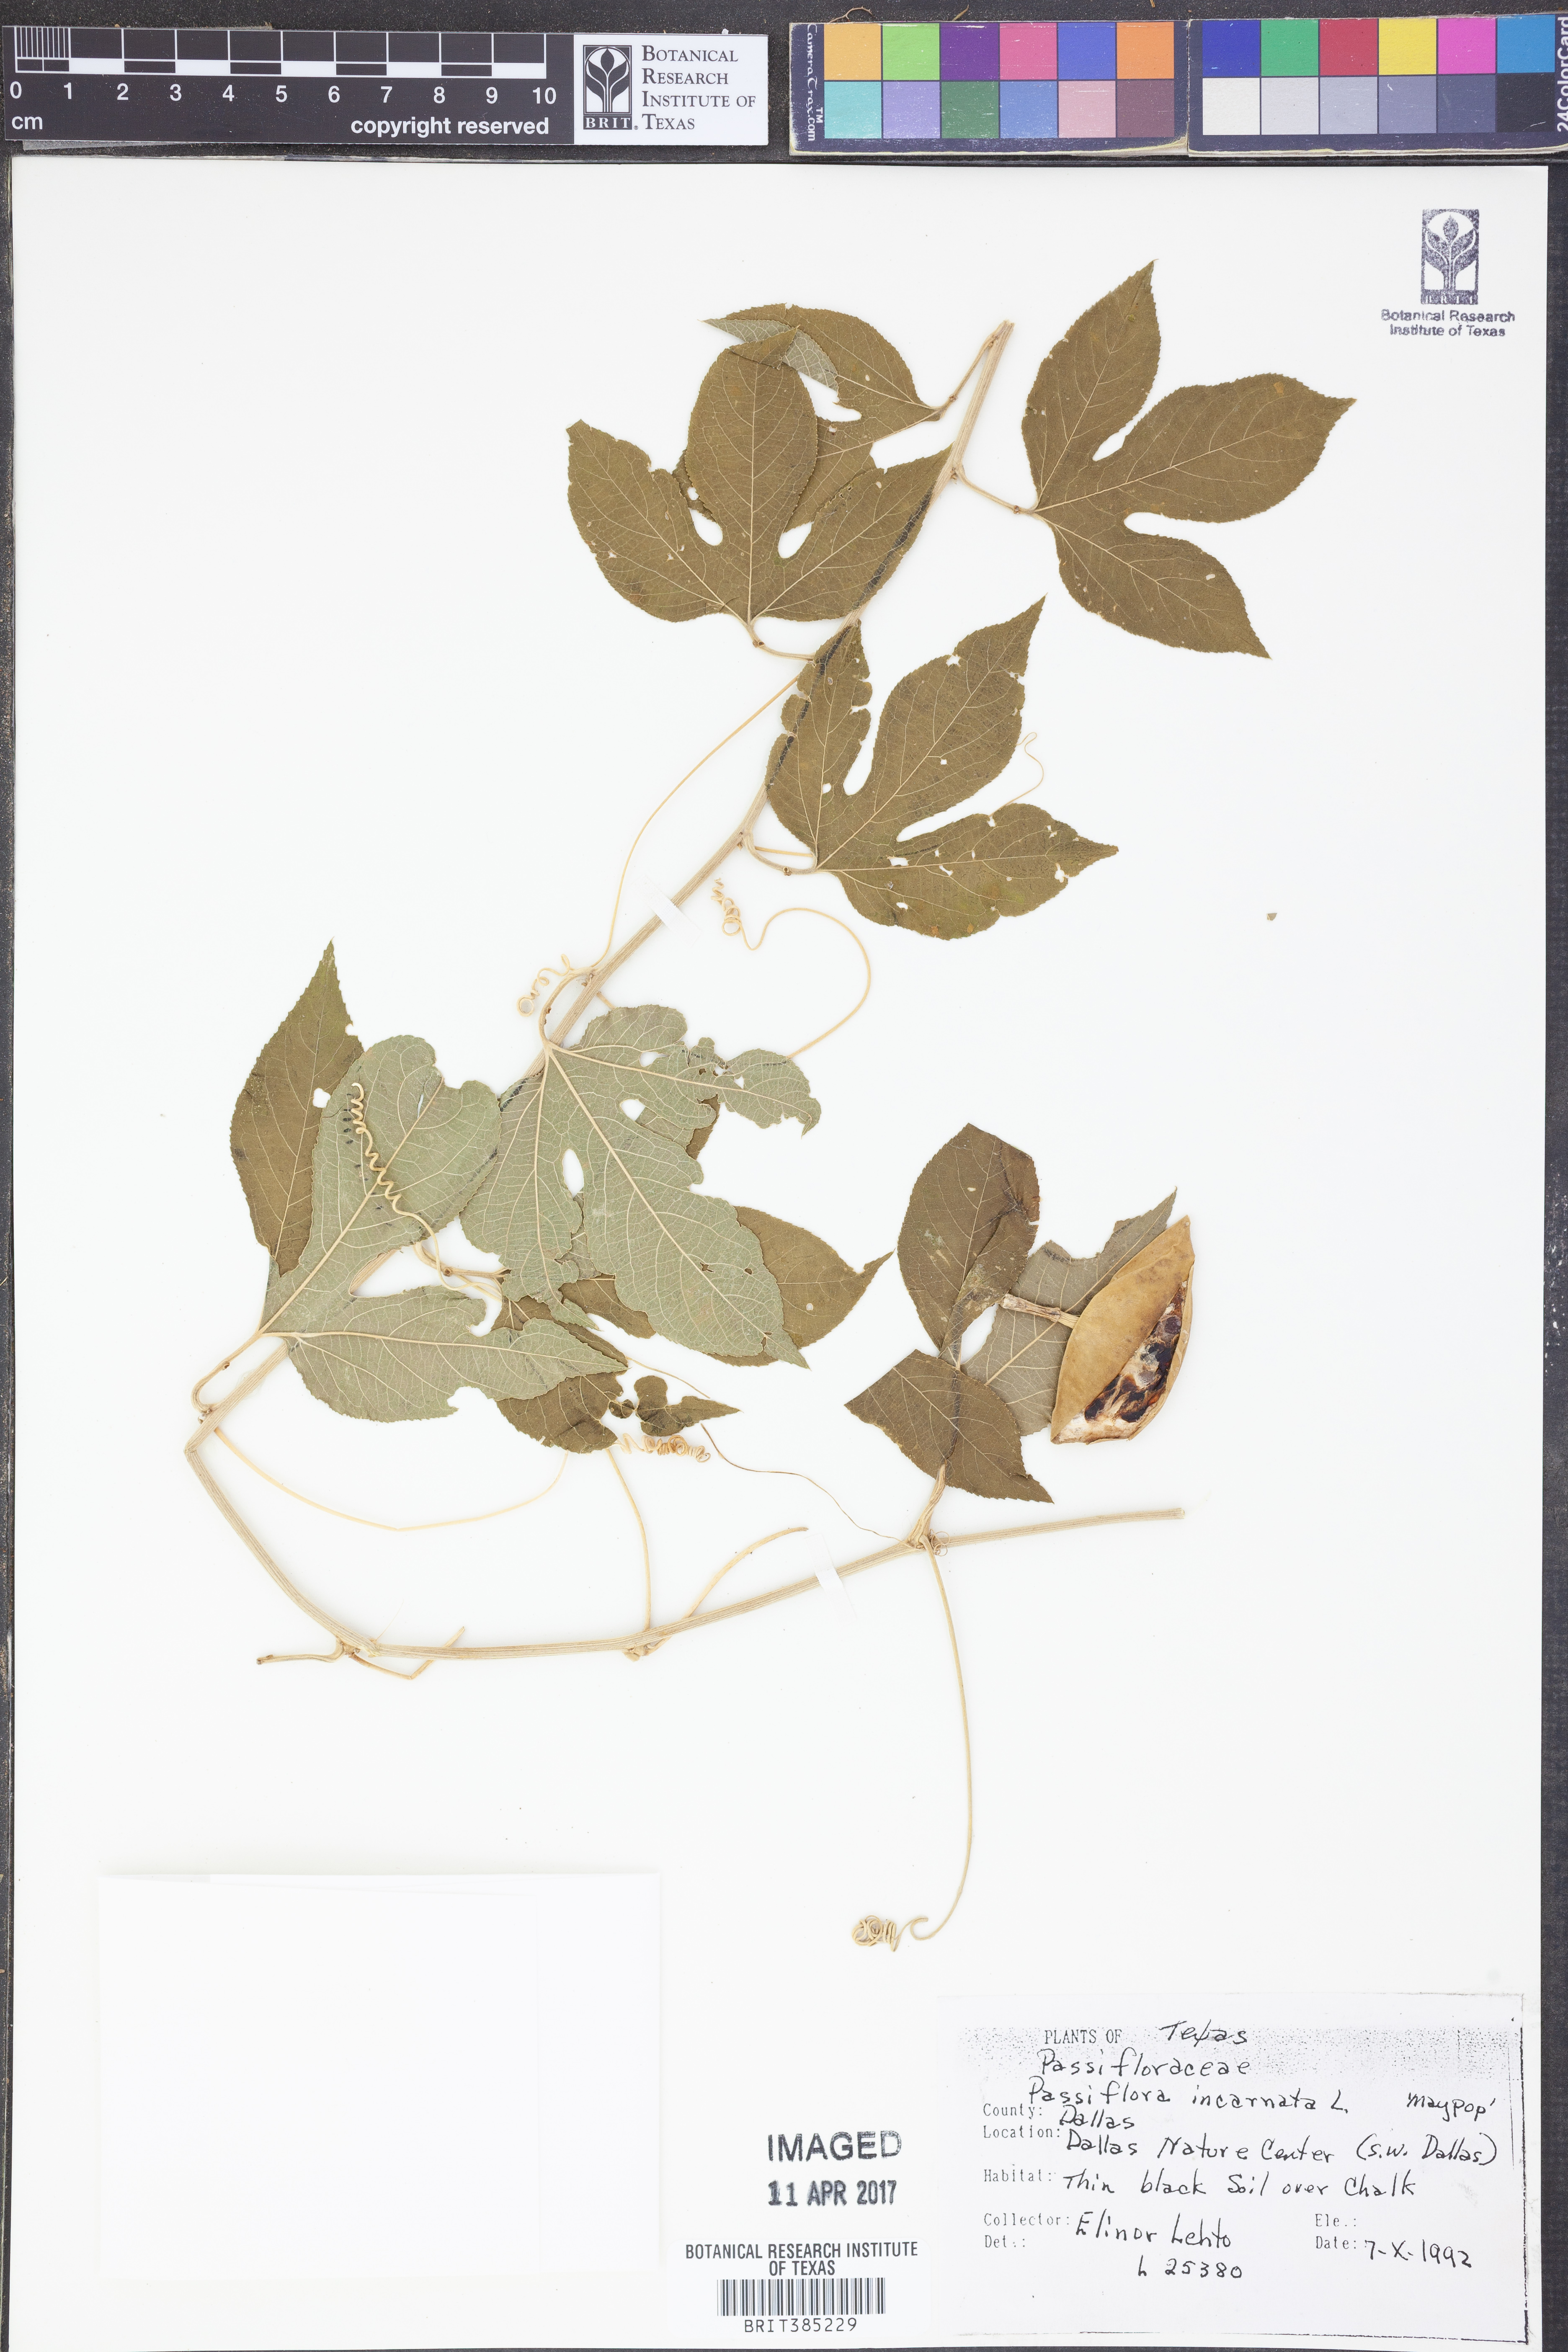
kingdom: Plantae
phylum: Tracheophyta
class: Magnoliopsida
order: Malpighiales
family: Passifloraceae
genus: Passiflora
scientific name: Passiflora incarnata
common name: Apricot-vine
